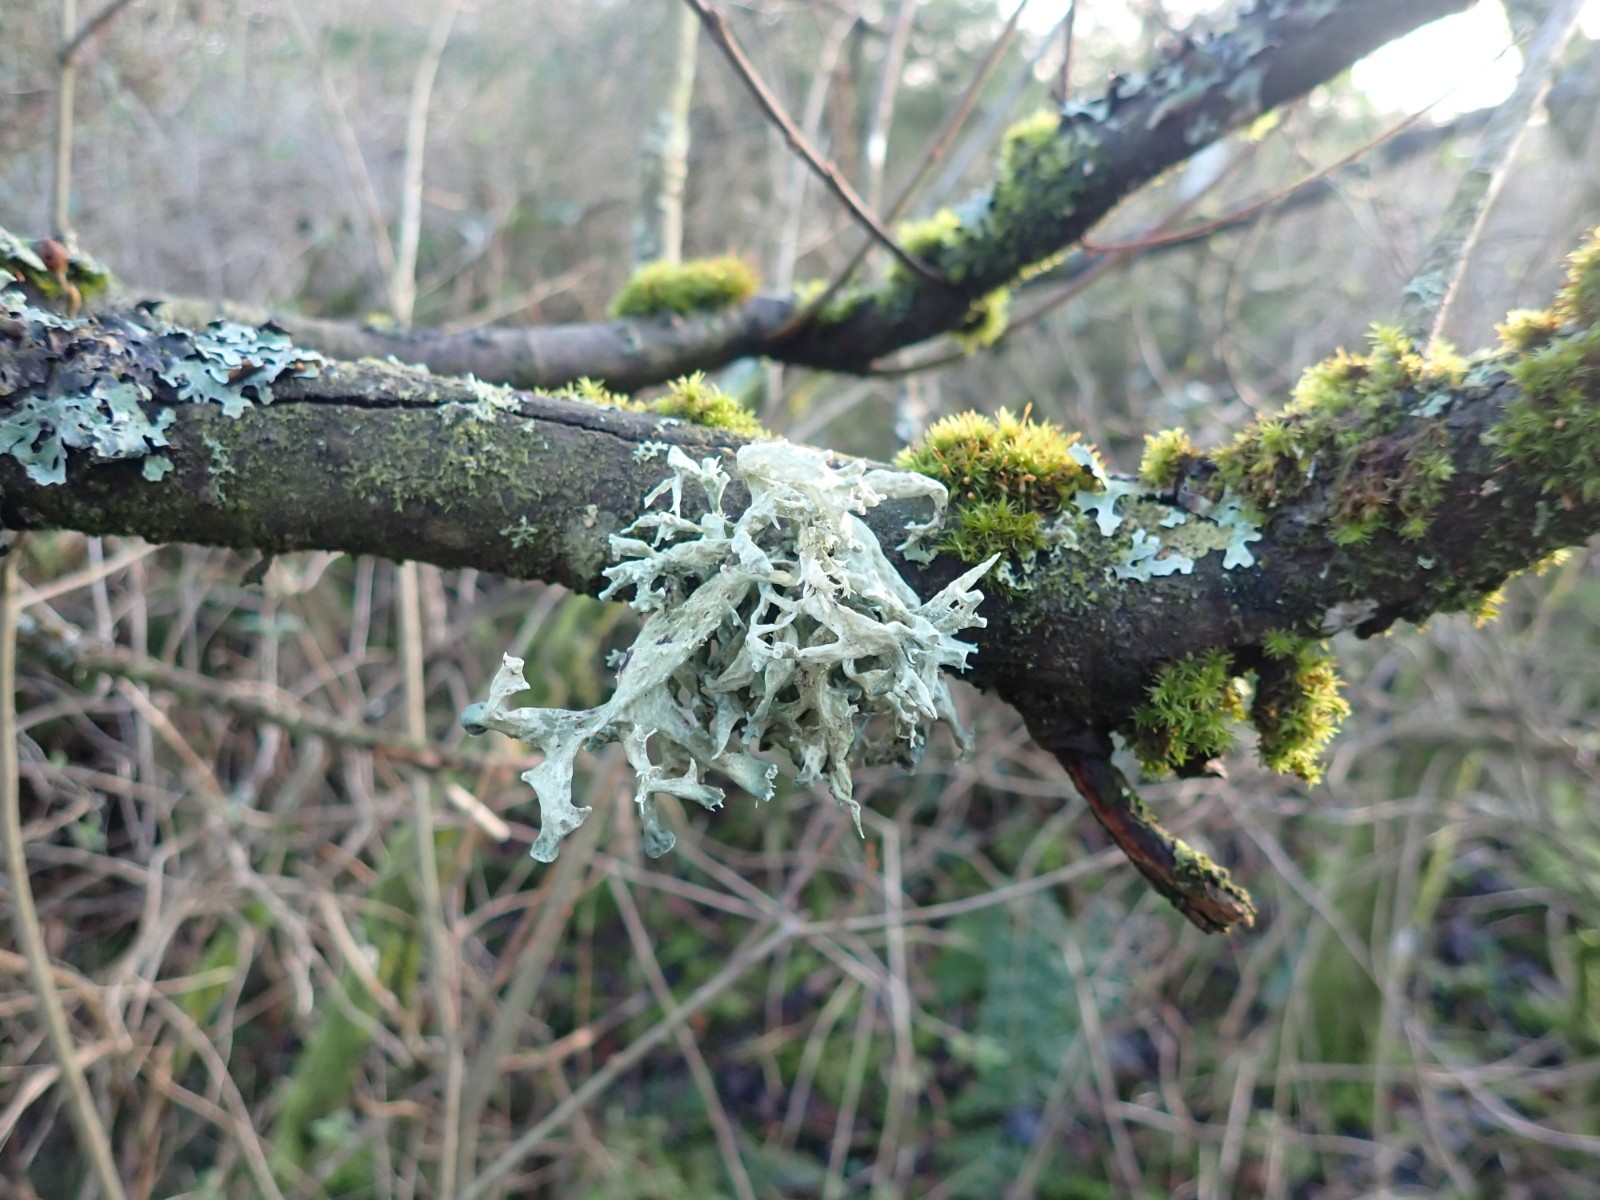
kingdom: Fungi
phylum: Ascomycota
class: Lecanoromycetes
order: Lecanorales
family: Ramalinaceae
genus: Ramalina
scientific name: Ramalina fastigiata
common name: tue-grenlav
